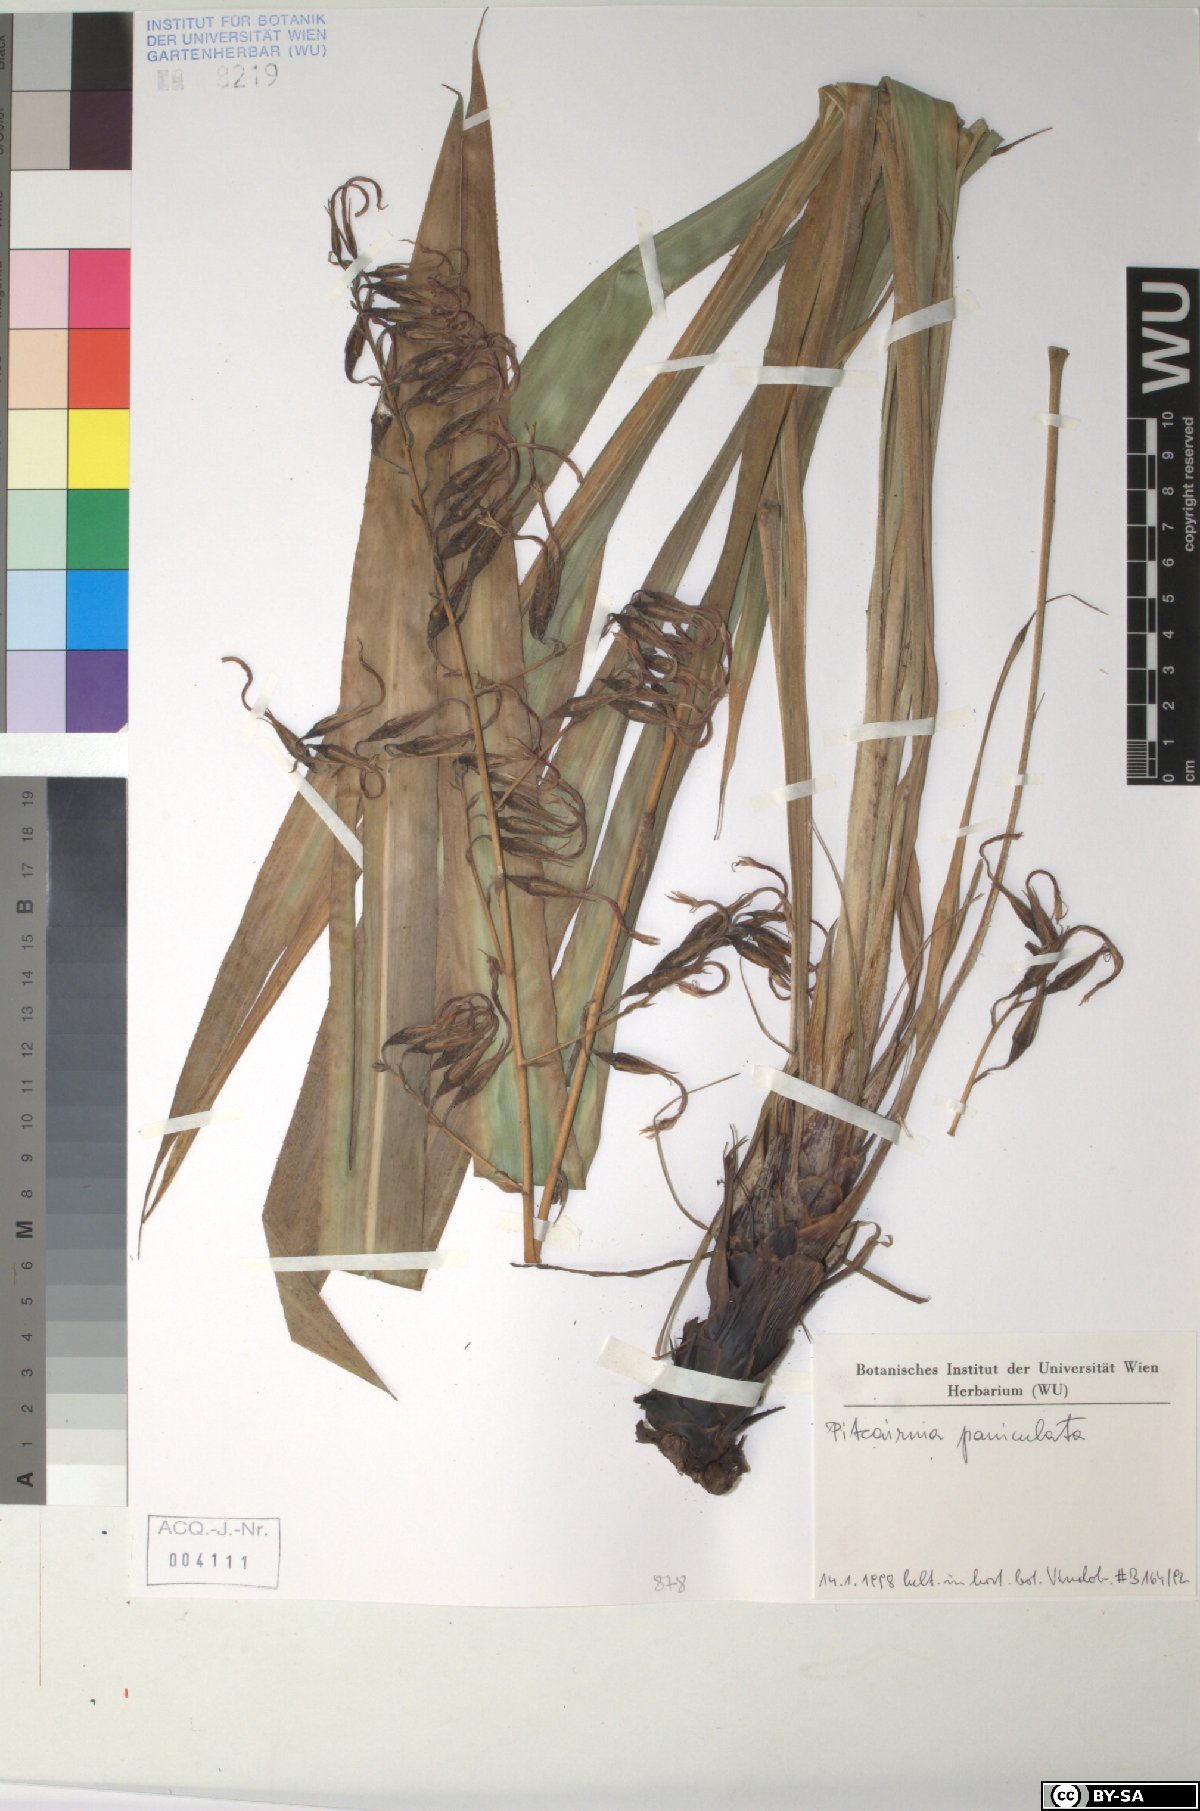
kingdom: Plantae
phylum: Tracheophyta
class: Liliopsida
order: Poales
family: Bromeliaceae
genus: Aechmea
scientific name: Aechmea paniculata
